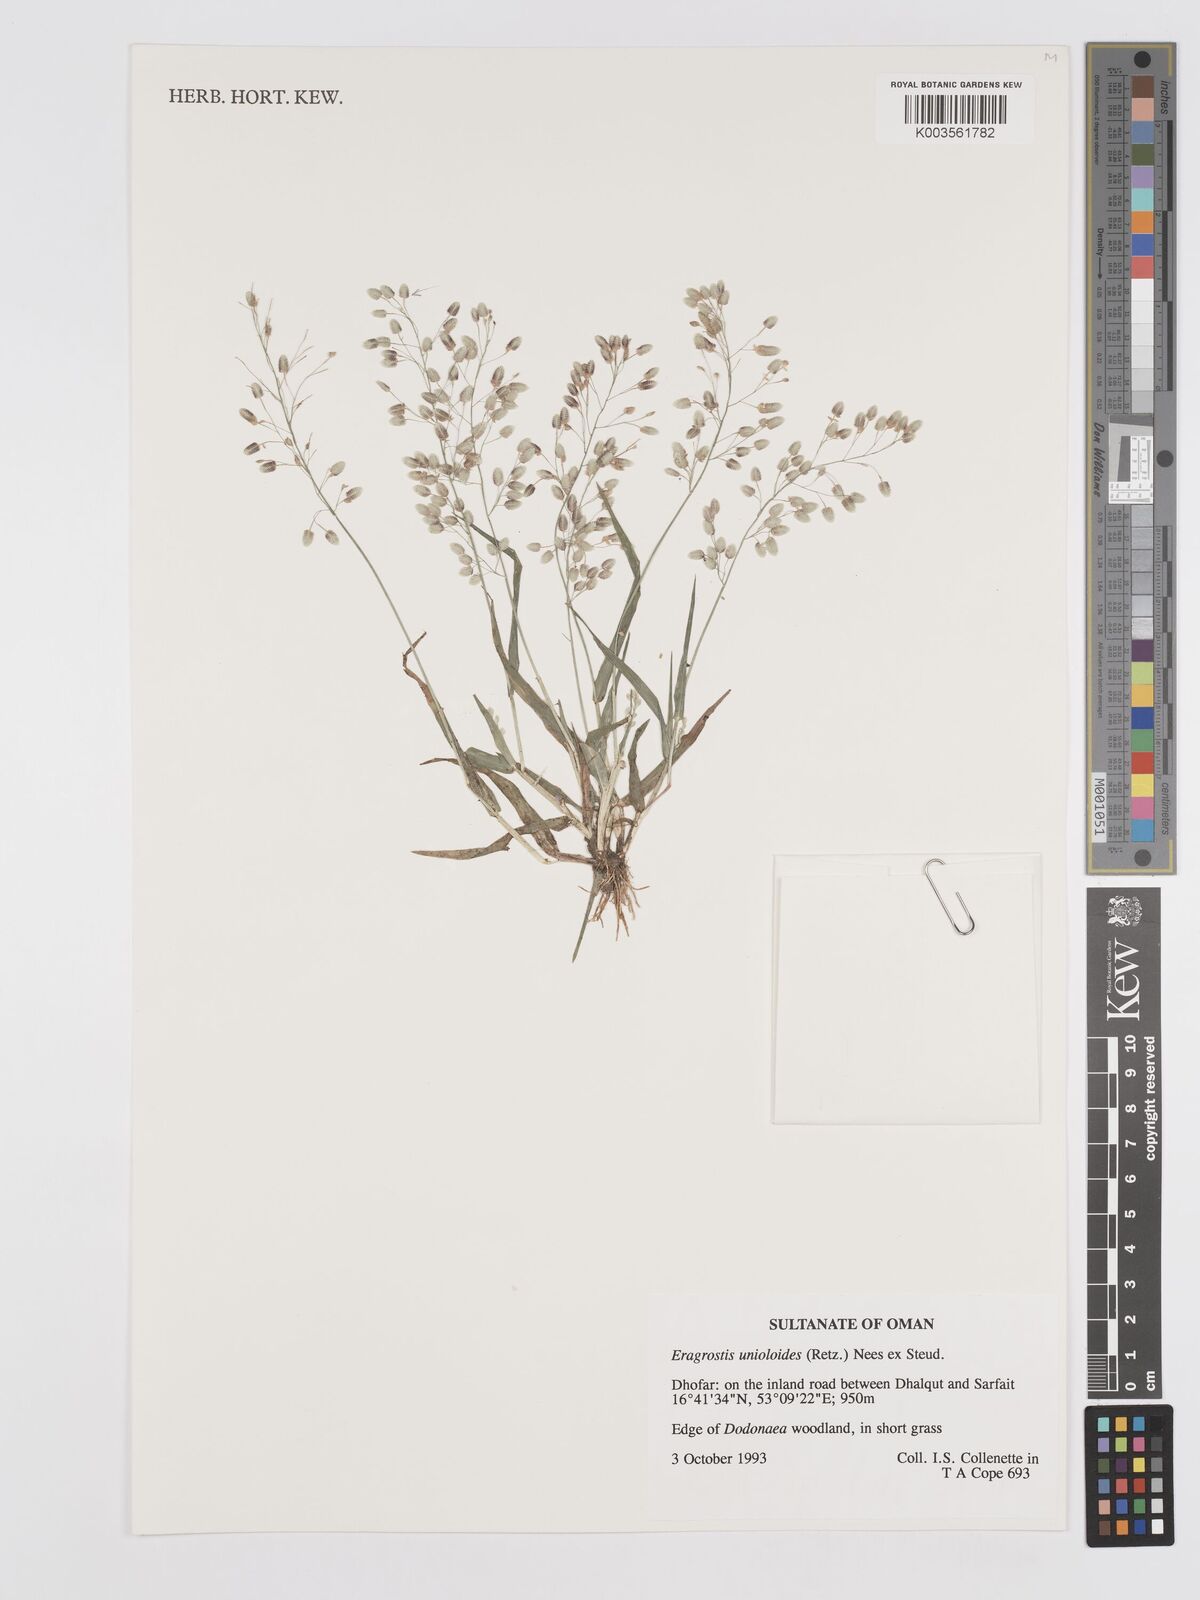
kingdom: Plantae
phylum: Tracheophyta
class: Liliopsida
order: Poales
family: Poaceae
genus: Eragrostis
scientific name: Eragrostis unioloides
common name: Chinese lovegrass
